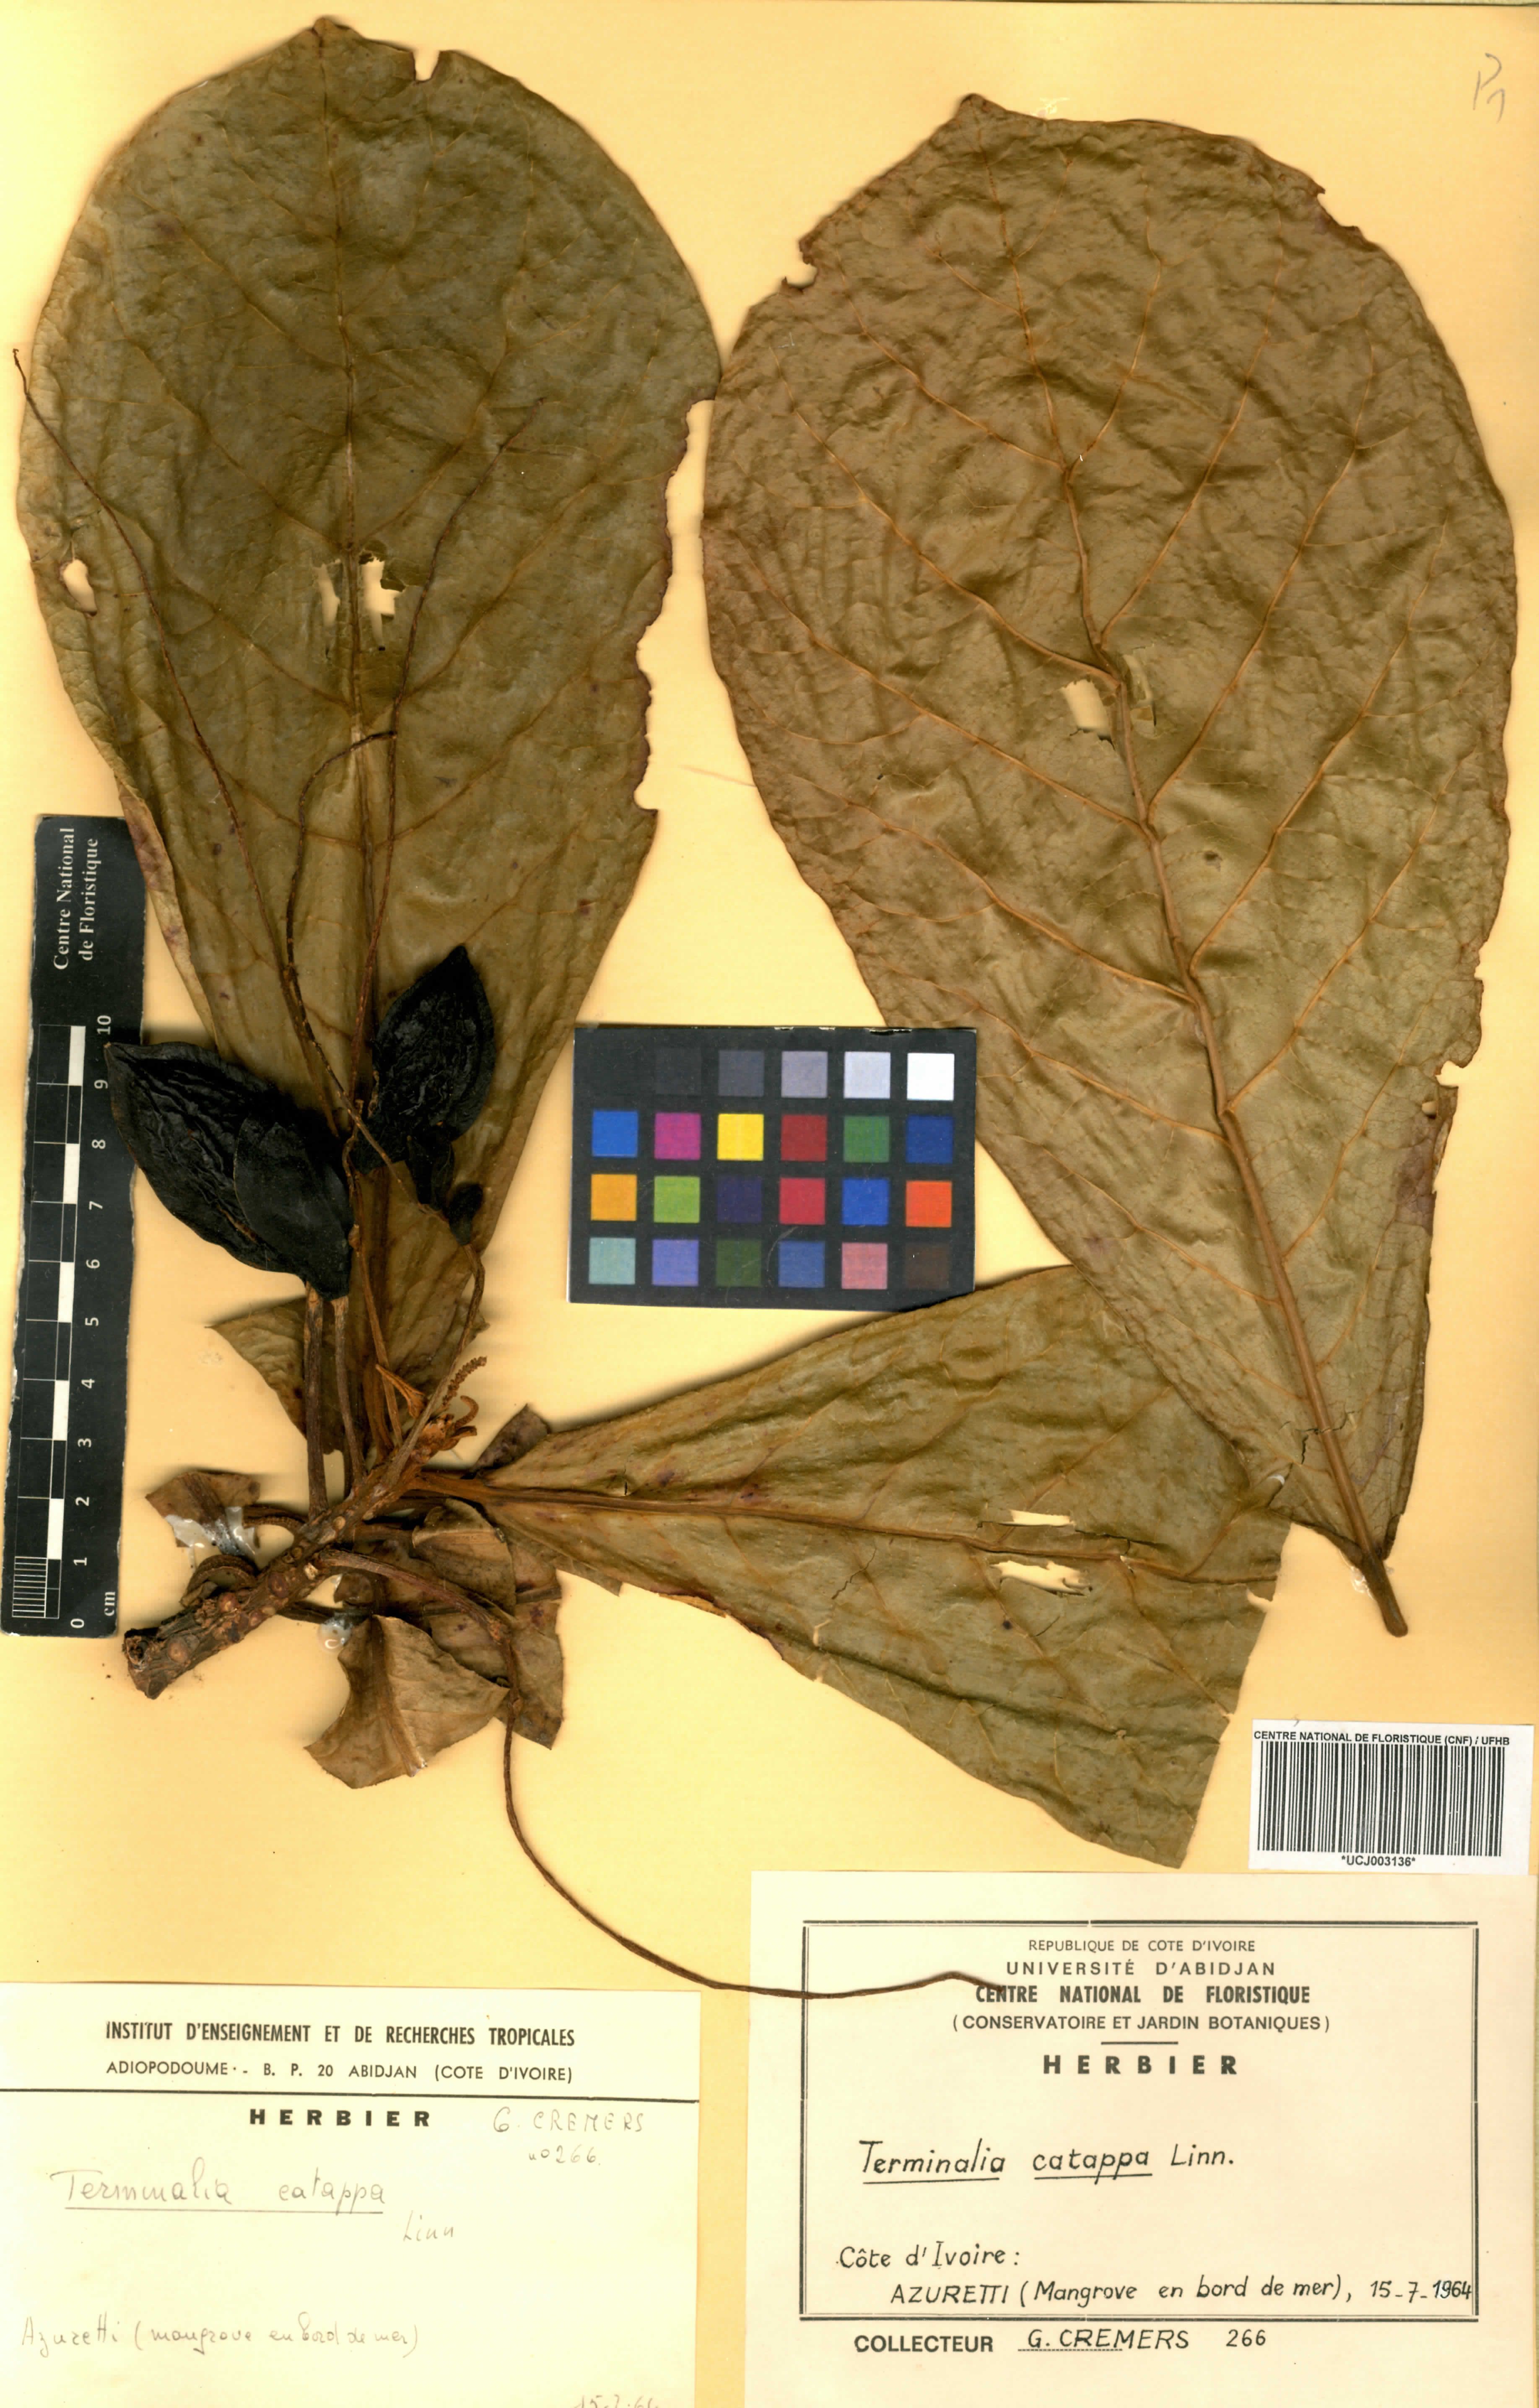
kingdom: Plantae
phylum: Tracheophyta
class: Magnoliopsida
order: Myrtales
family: Combretaceae
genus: Terminalia
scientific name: Terminalia catappa
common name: Tropical almond
